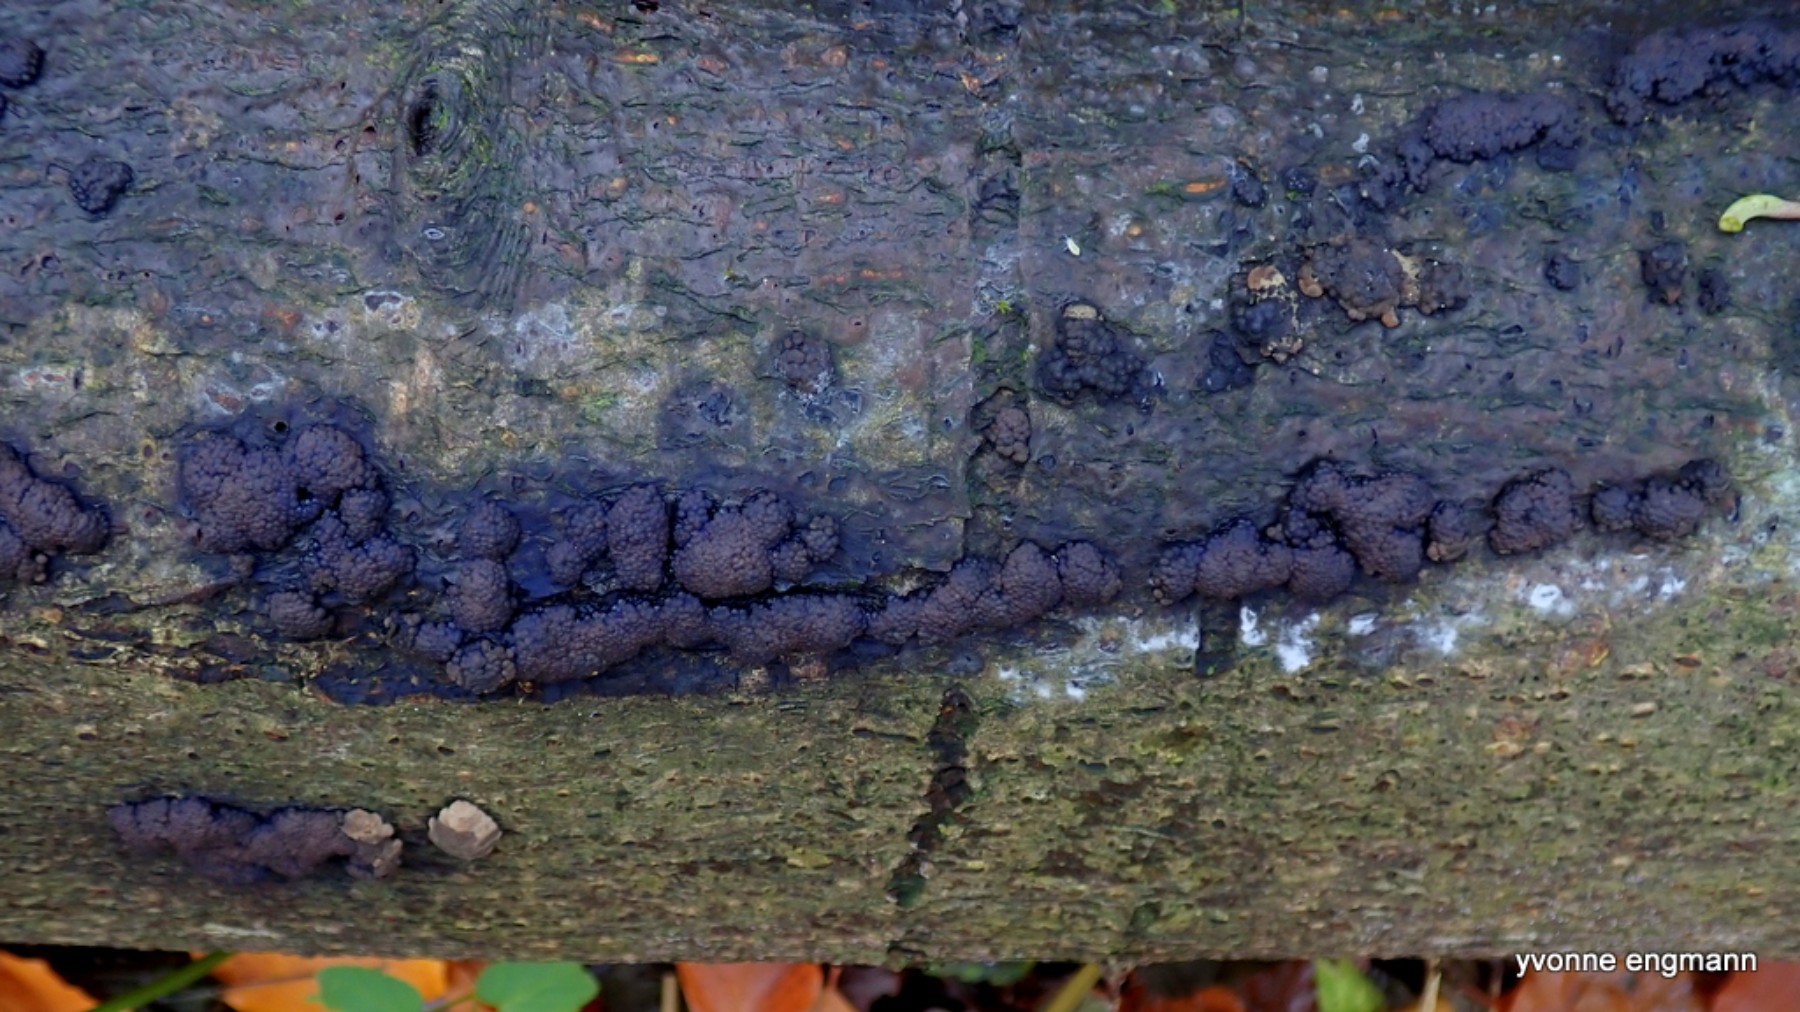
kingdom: Fungi
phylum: Ascomycota
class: Sordariomycetes
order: Xylariales
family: Hypoxylaceae
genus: Jackrogersella
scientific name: Jackrogersella cohaerens
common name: sammenflydende kulbær
